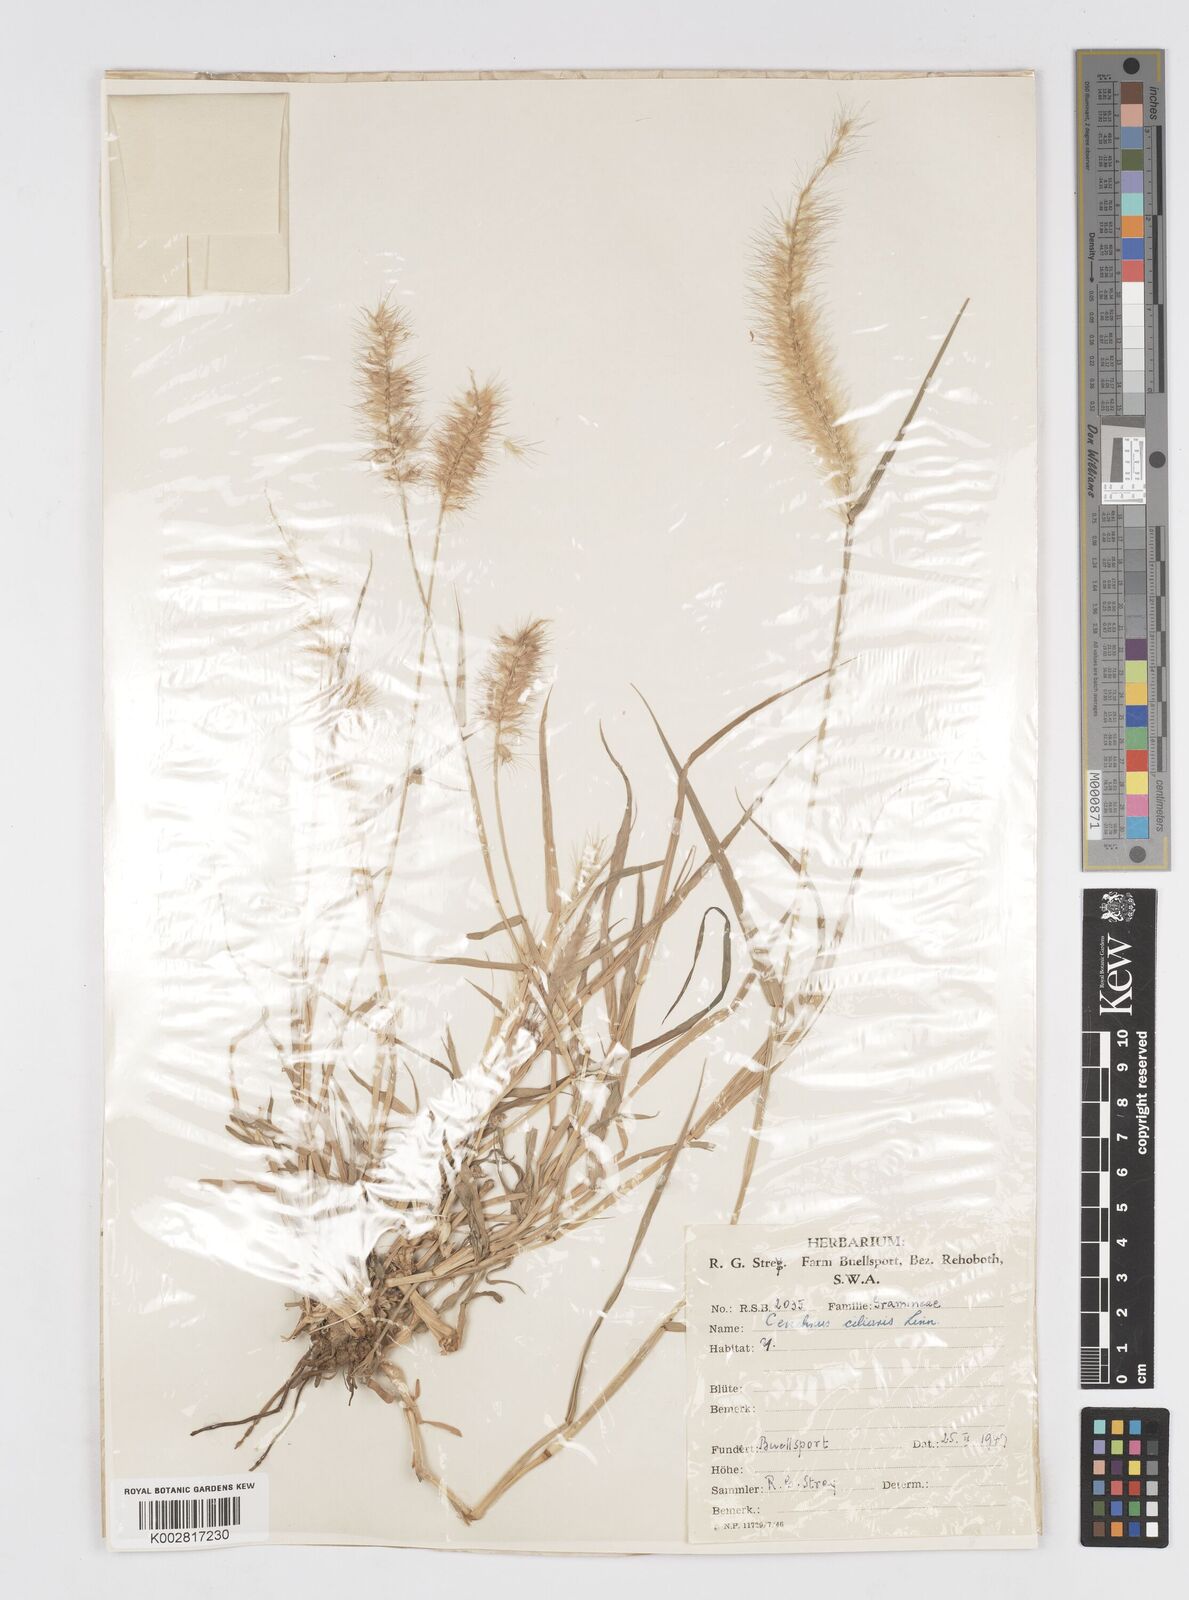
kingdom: Plantae
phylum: Tracheophyta
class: Liliopsida
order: Poales
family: Poaceae
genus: Cenchrus
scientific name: Cenchrus ciliaris
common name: Buffelgrass
